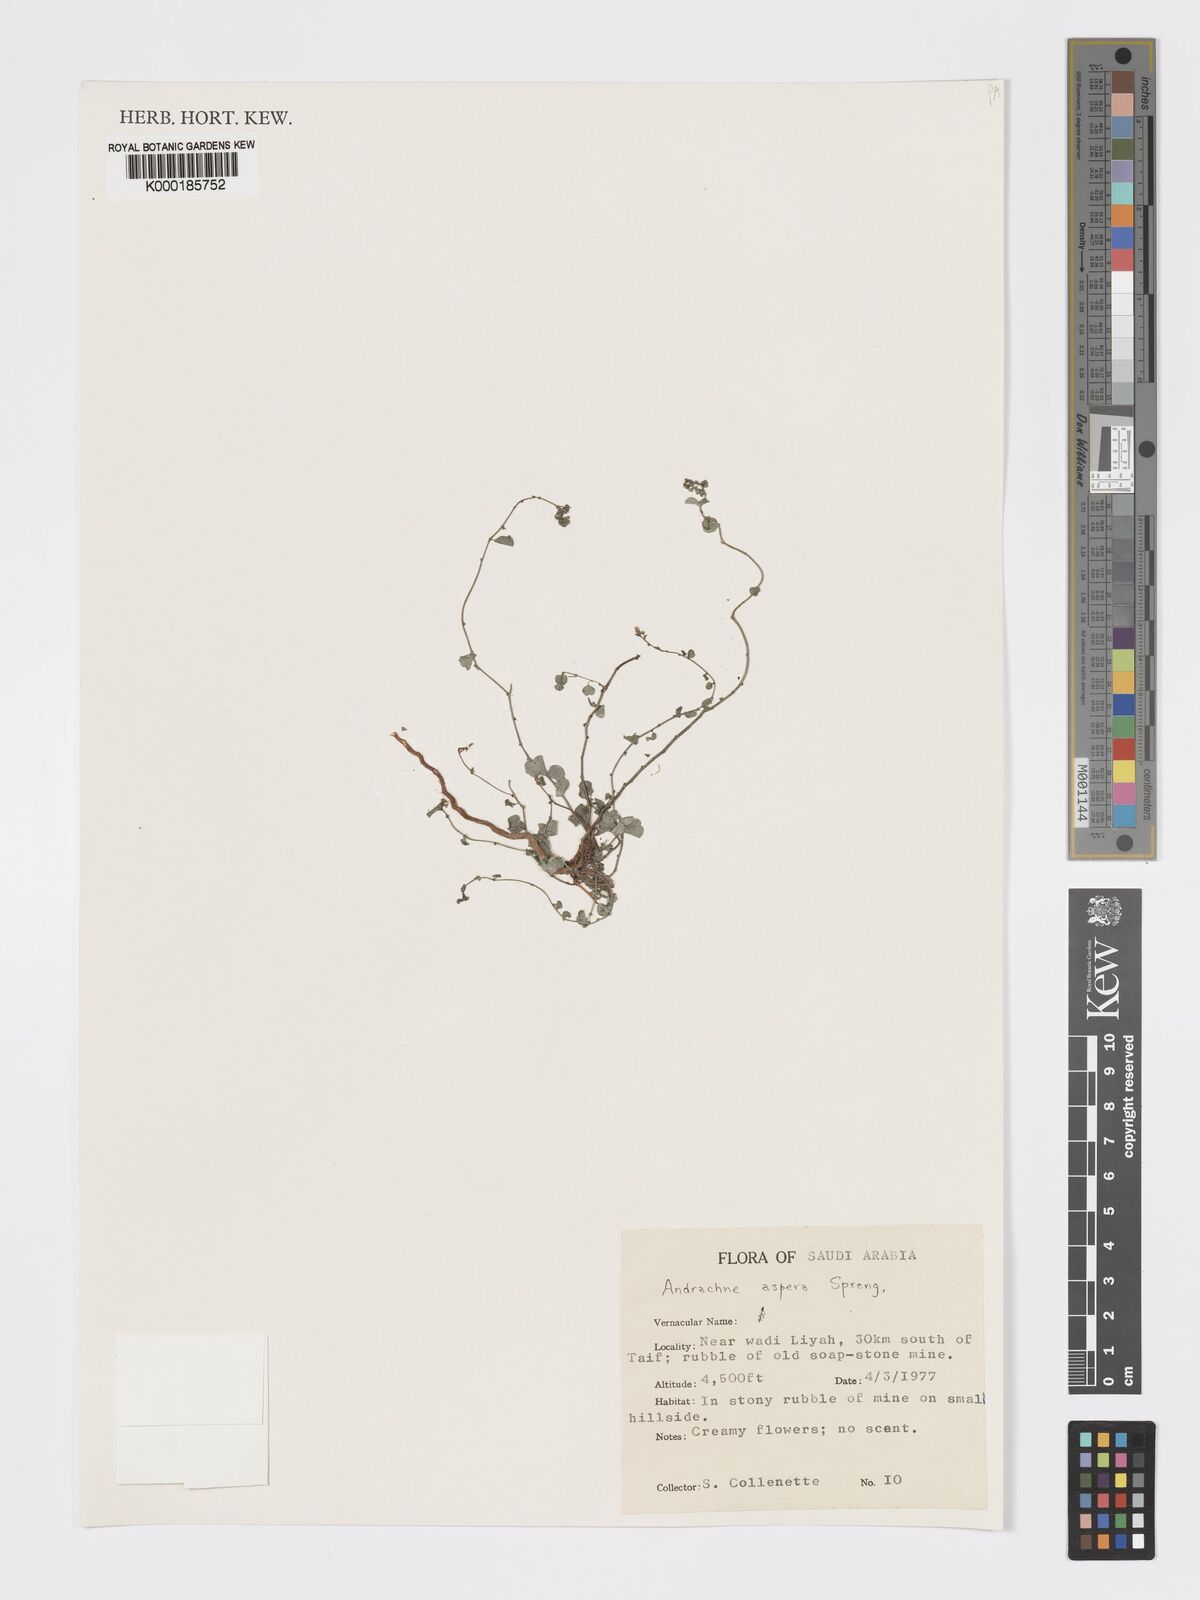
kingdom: Plantae
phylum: Tracheophyta
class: Magnoliopsida
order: Malpighiales
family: Phyllanthaceae
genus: Andrachne
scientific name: Andrachne aspera
